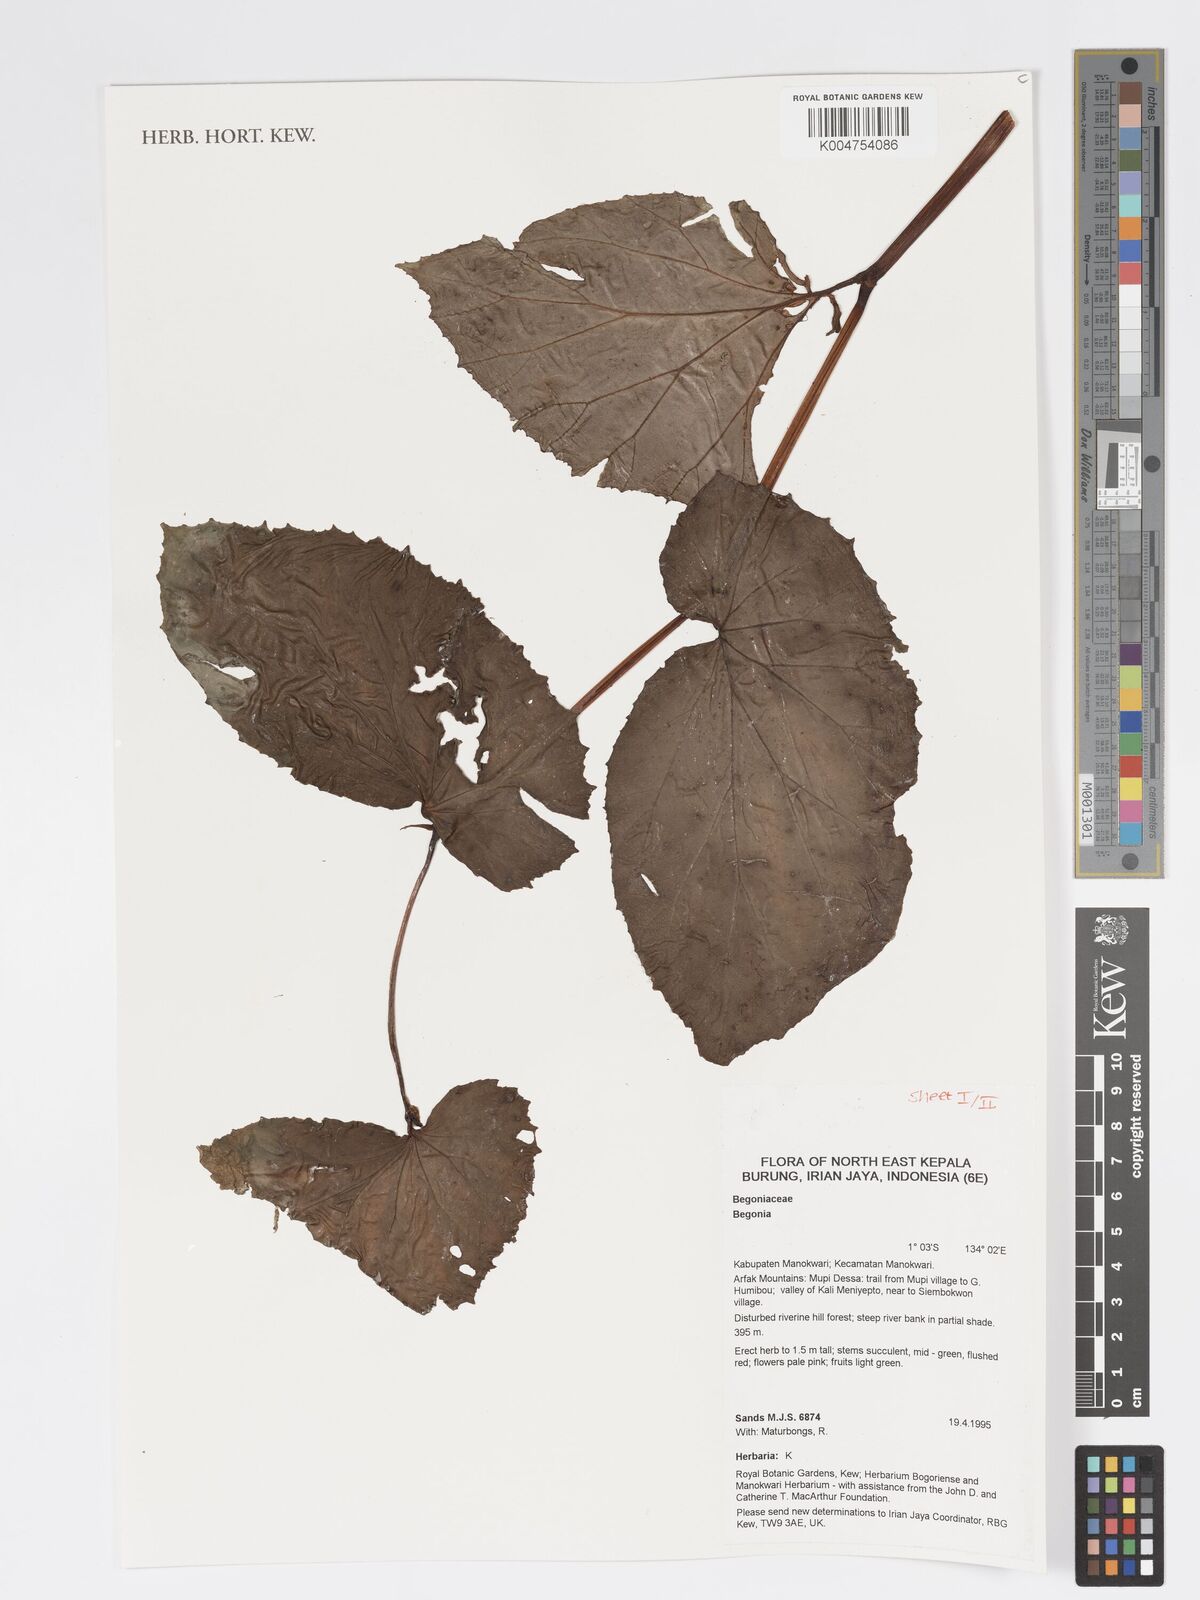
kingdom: Plantae
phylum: Tracheophyta
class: Magnoliopsida
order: Cucurbitales
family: Begoniaceae
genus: Begonia
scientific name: Begonia
